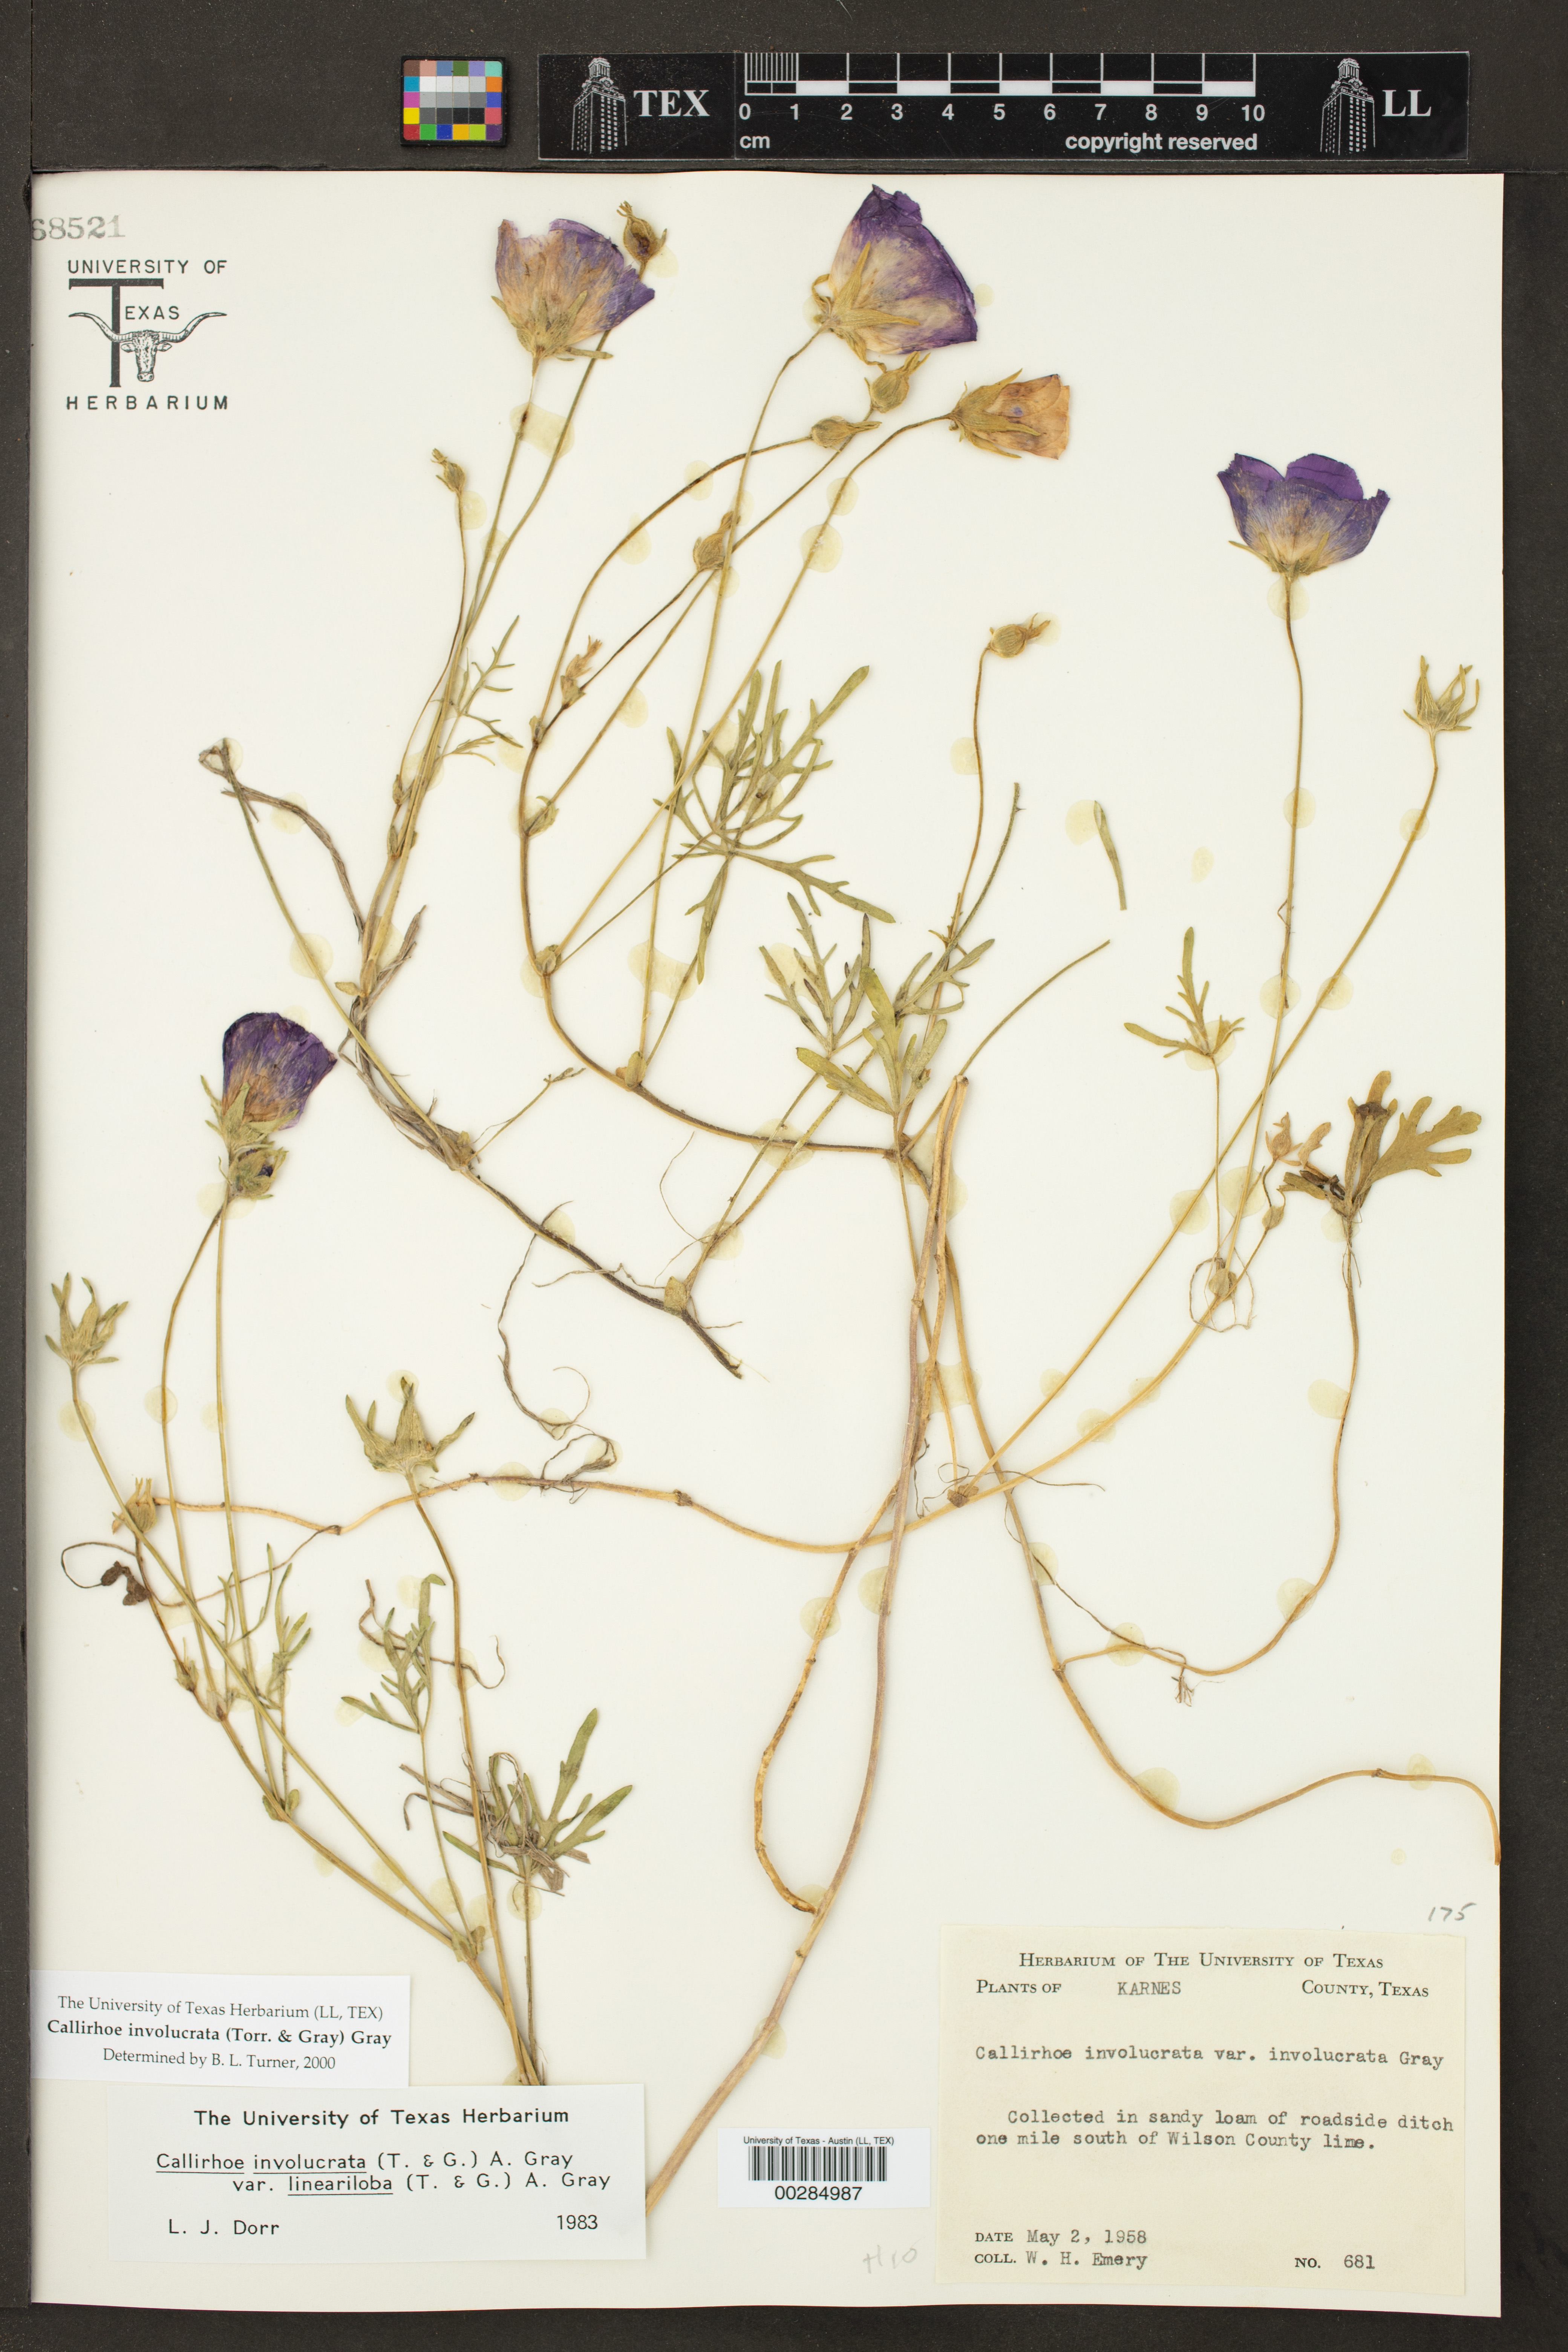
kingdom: Plantae
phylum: Tracheophyta
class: Magnoliopsida
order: Malvales
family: Malvaceae
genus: Callirhoe
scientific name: Callirhoe involucrata
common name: Purple poppy-mallow
